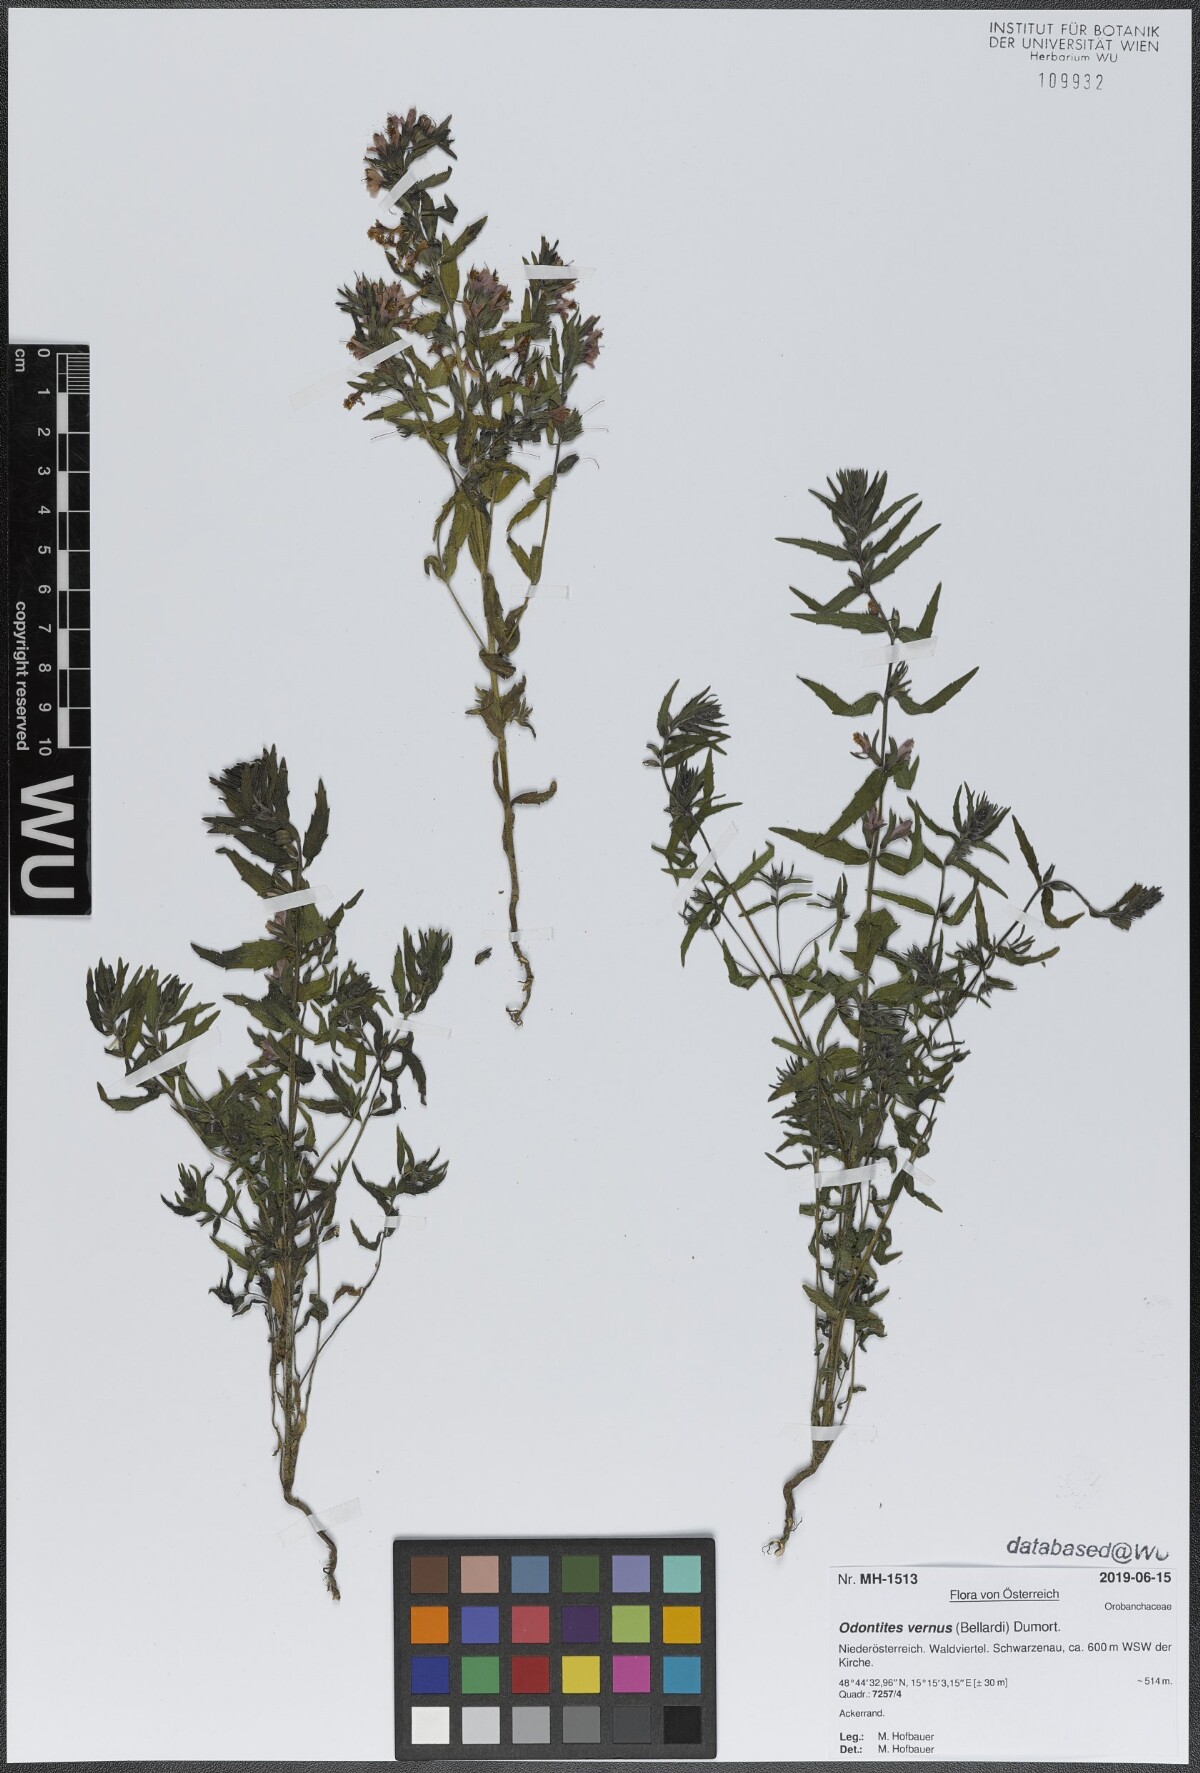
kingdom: Plantae
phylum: Tracheophyta
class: Magnoliopsida
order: Lamiales
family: Orobanchaceae
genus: Odontites
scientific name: Odontites vernus
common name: Red bartsia
